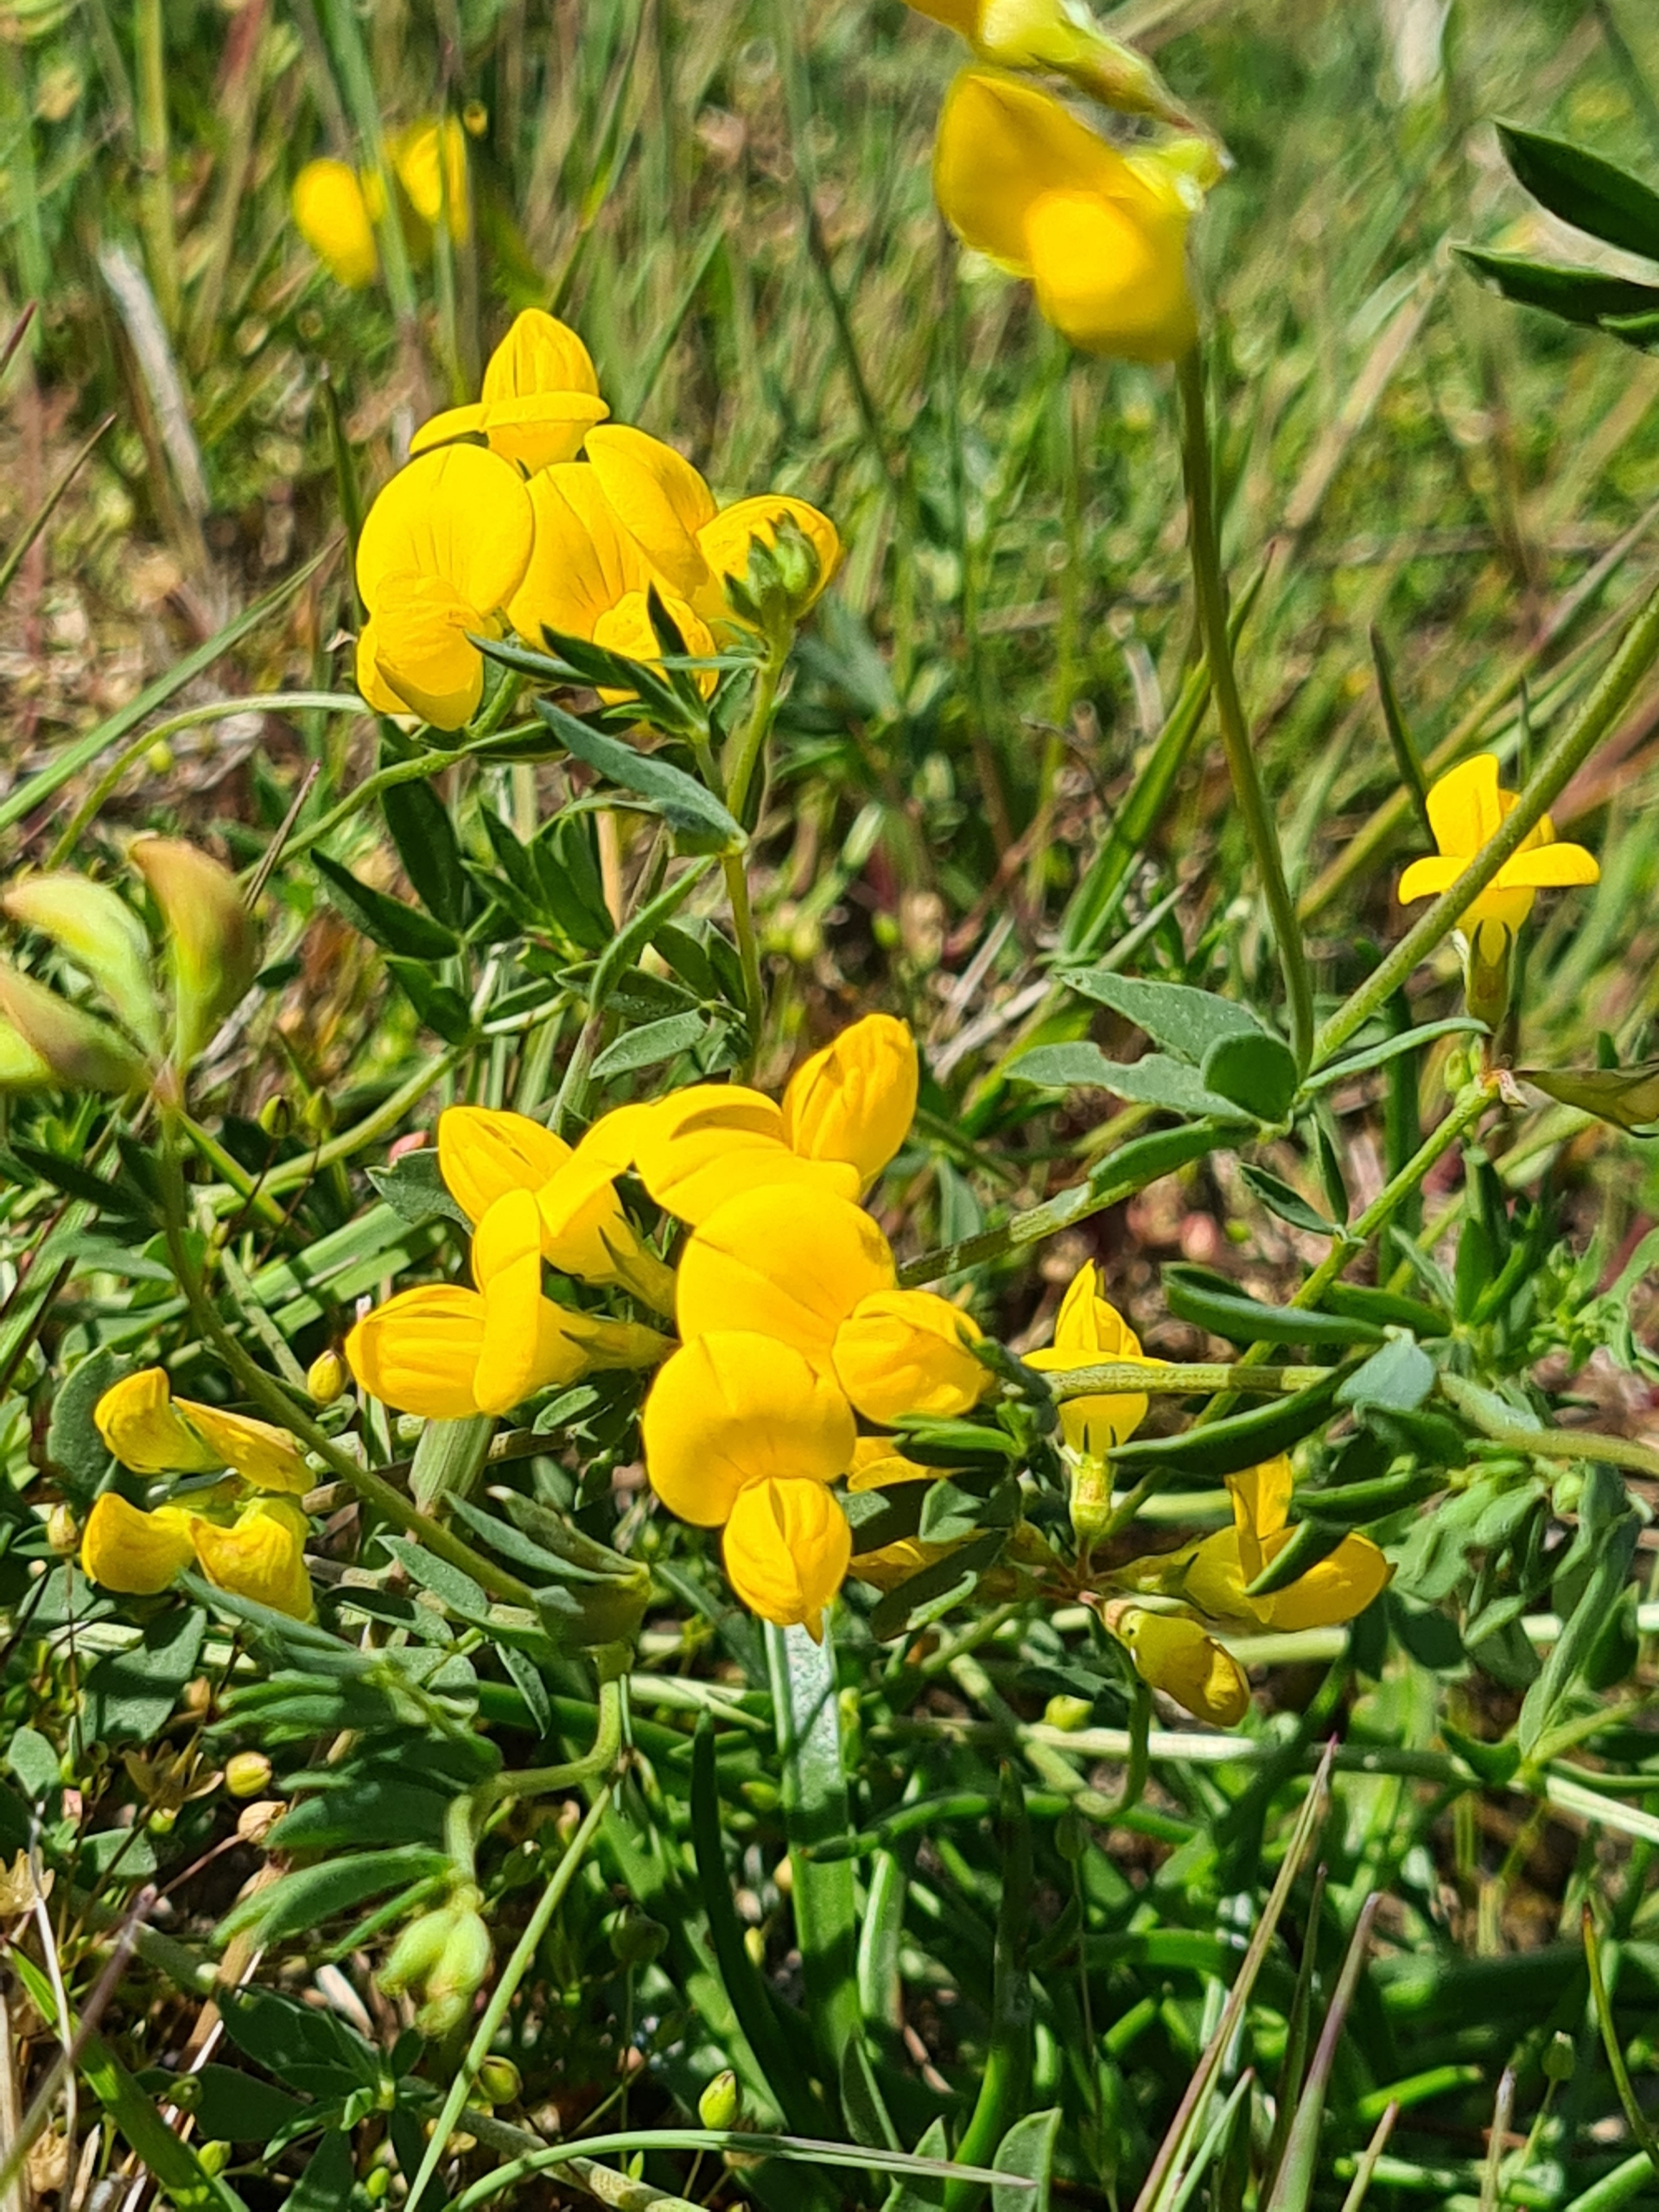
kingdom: Plantae
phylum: Tracheophyta
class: Magnoliopsida
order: Fabales
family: Fabaceae
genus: Lotus
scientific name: Lotus tenuis
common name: Smalbladet kællingetand
